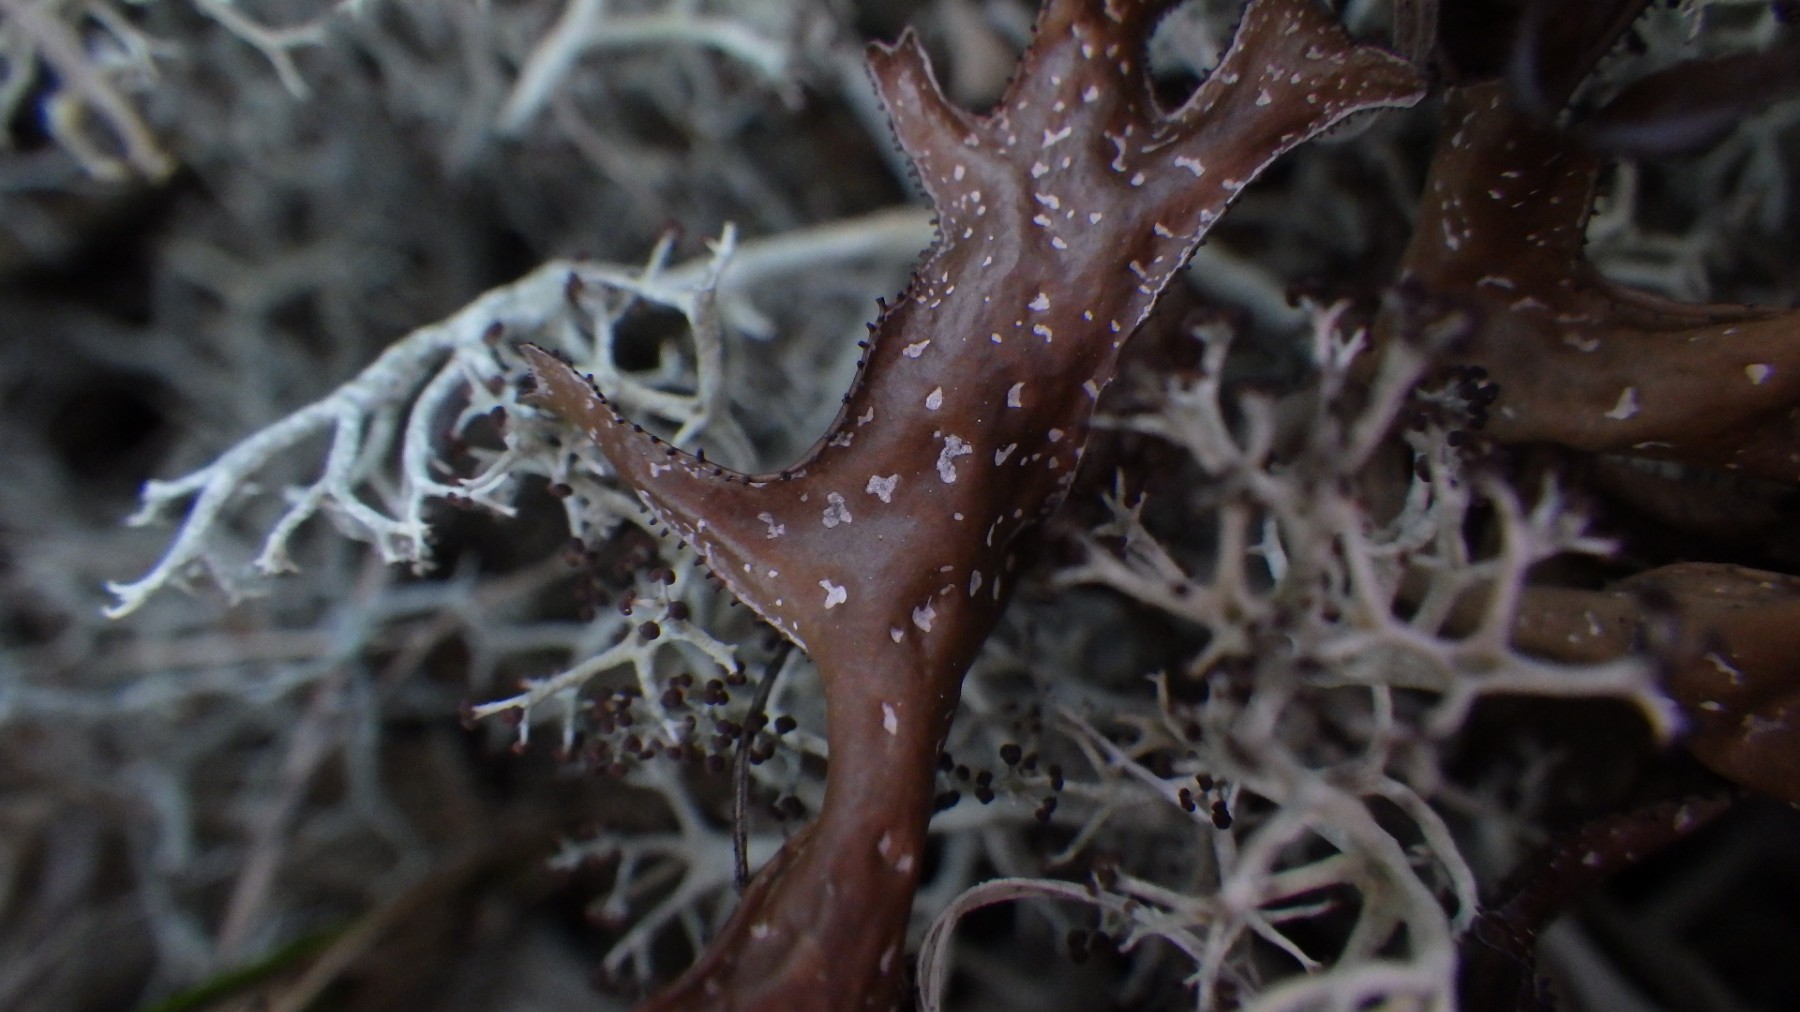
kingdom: Fungi
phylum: Ascomycota
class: Lecanoromycetes
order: Lecanorales
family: Parmeliaceae
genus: Cetraria
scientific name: Cetraria islandica
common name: islandsk kruslav
